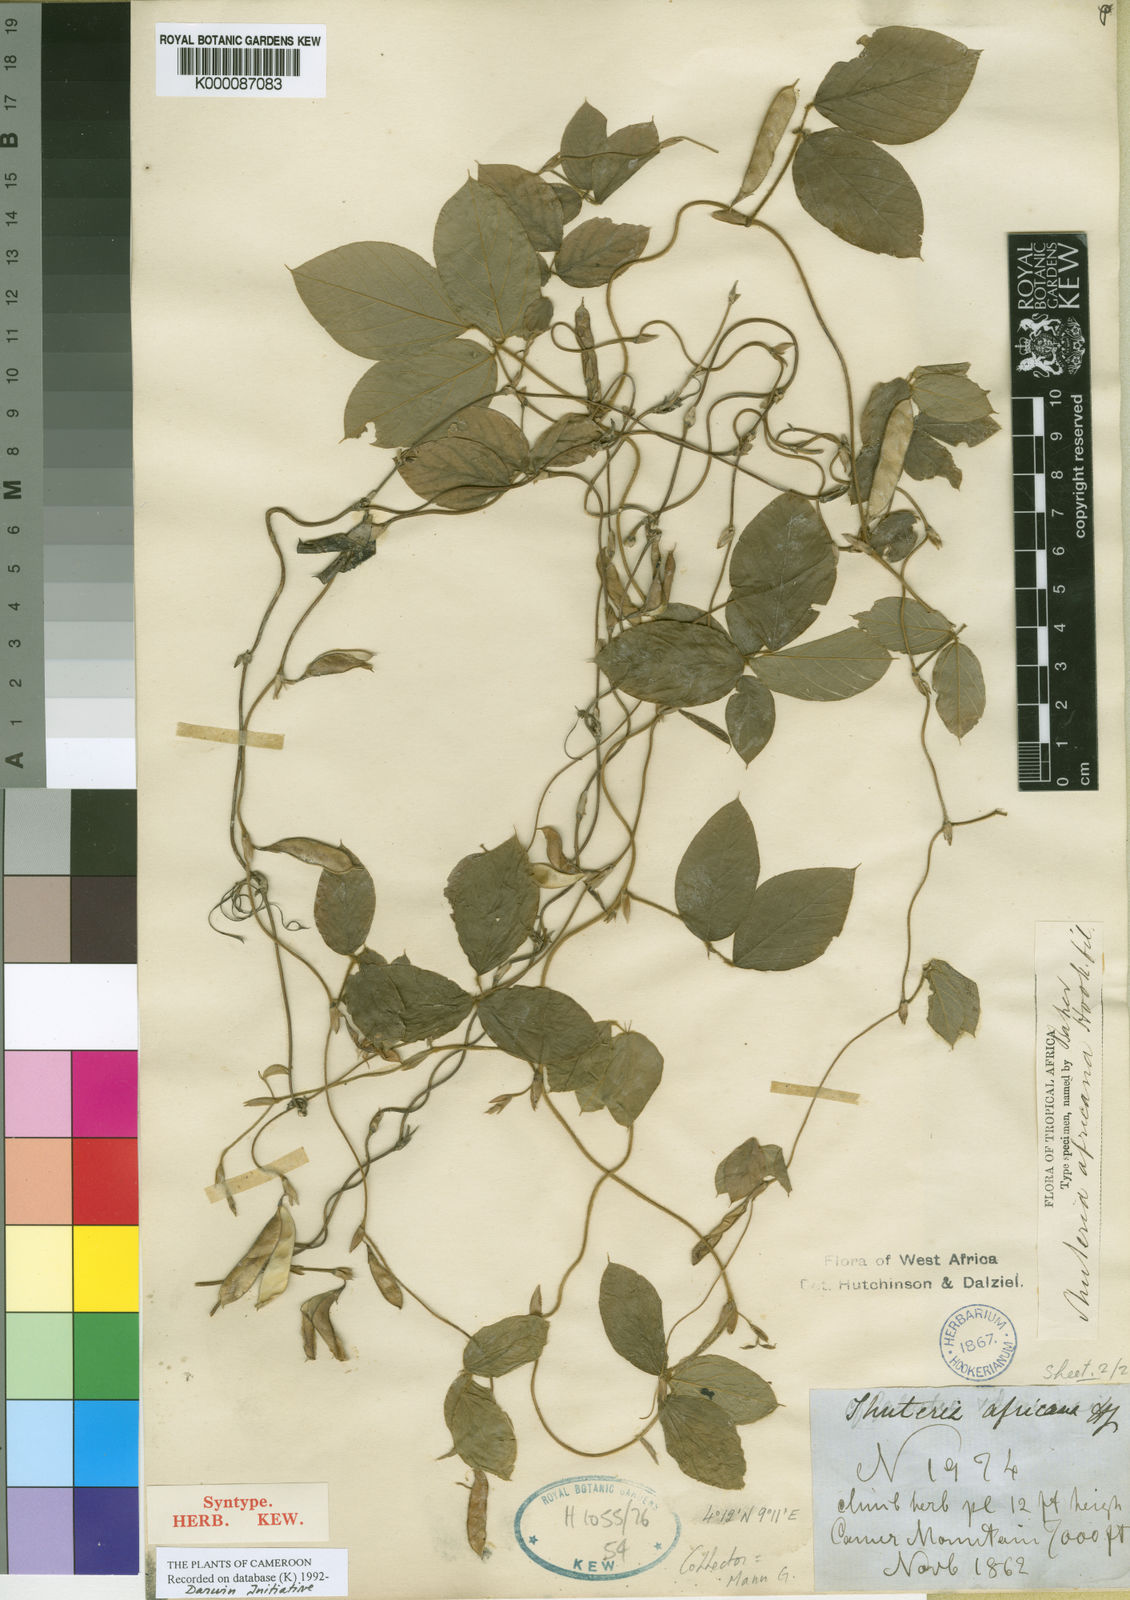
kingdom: Plantae
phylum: Tracheophyta
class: Magnoliopsida
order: Fabales
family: Fabaceae
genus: Afroamphica
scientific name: Afroamphica africana
